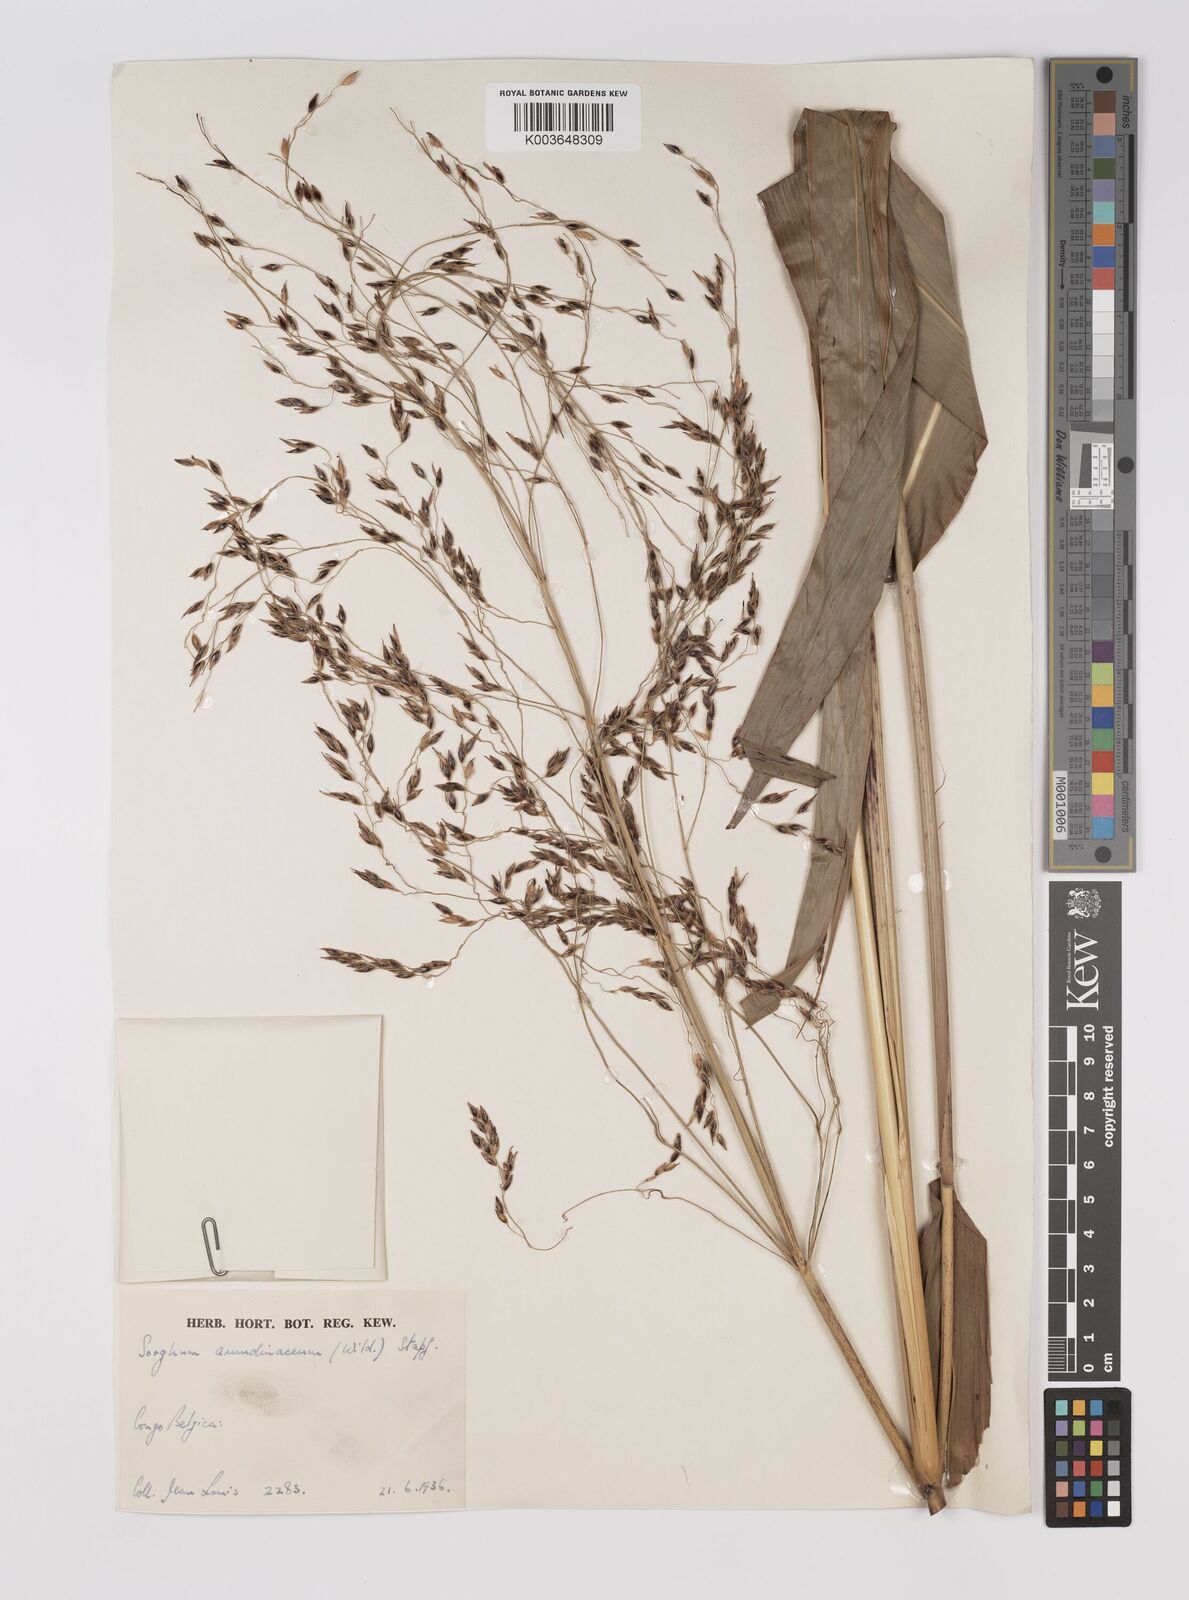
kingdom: Plantae
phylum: Tracheophyta
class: Liliopsida
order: Poales
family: Poaceae
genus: Sorghum
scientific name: Sorghum arundinaceum
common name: Sorghum
